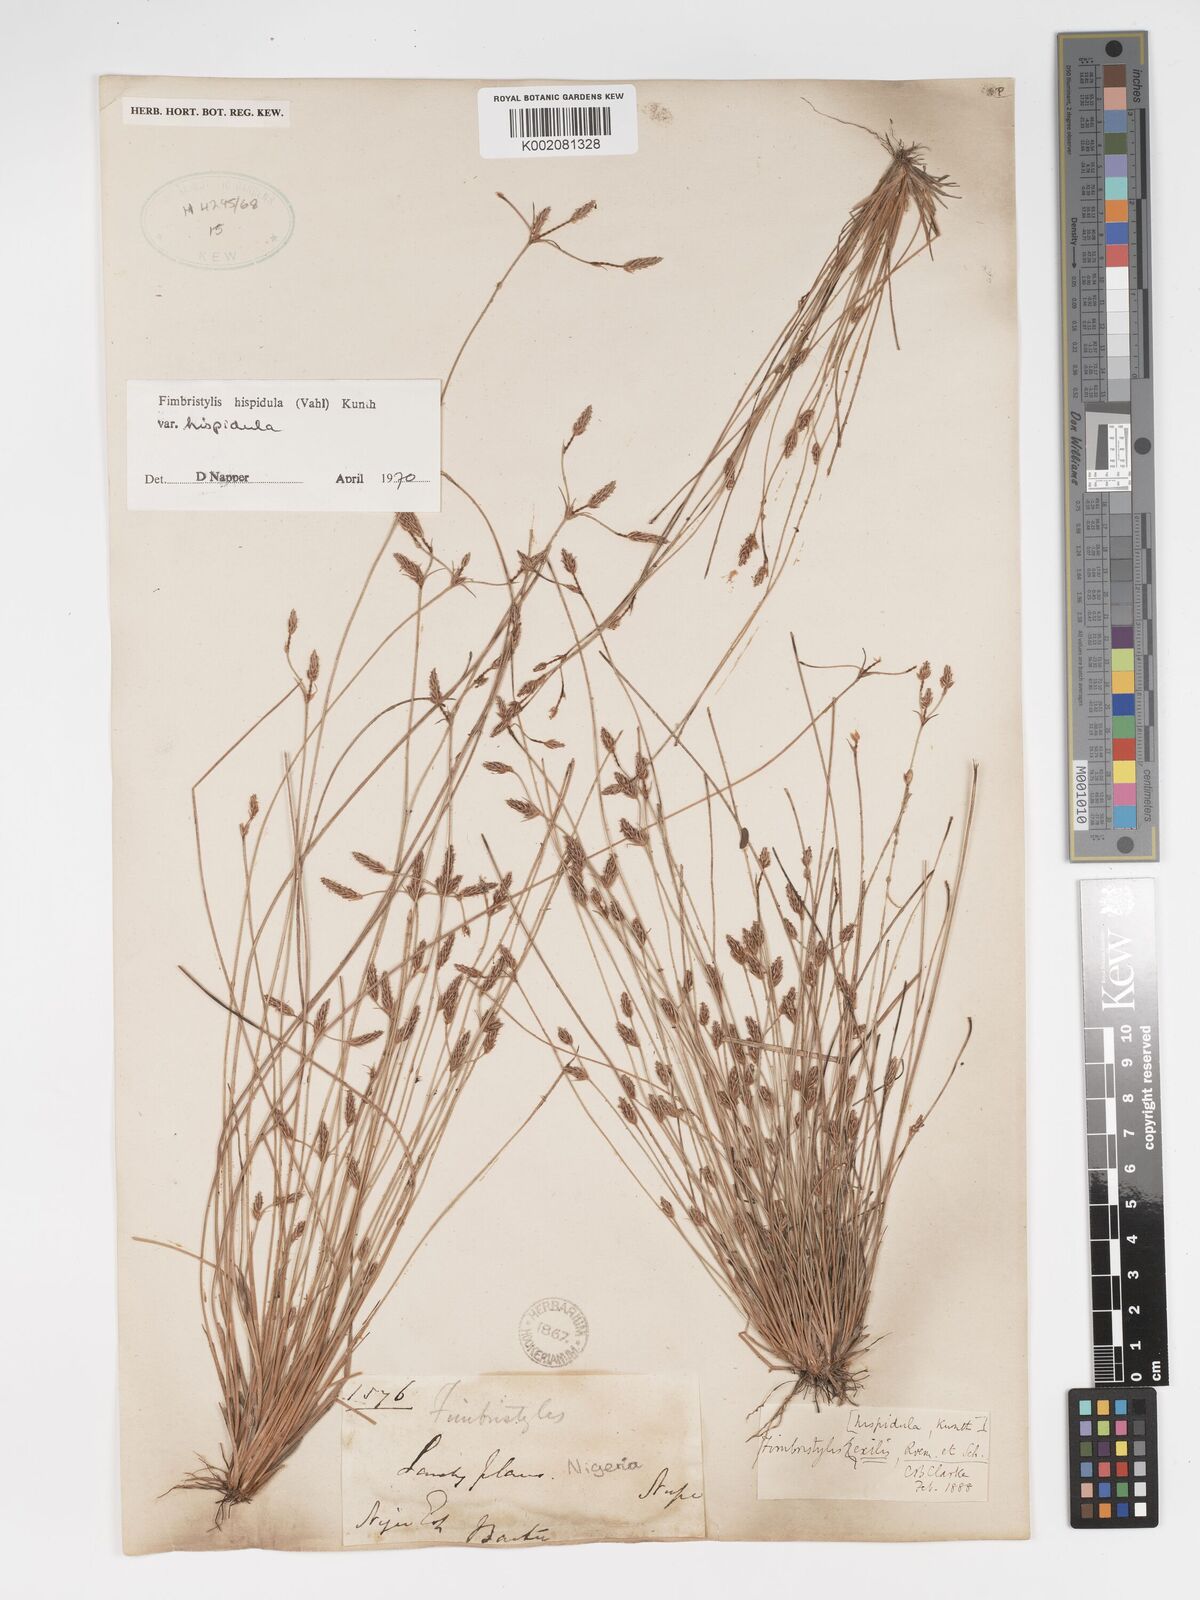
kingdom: Plantae
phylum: Tracheophyta
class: Liliopsida
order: Poales
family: Cyperaceae
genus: Bulbostylis
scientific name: Bulbostylis hispidula
